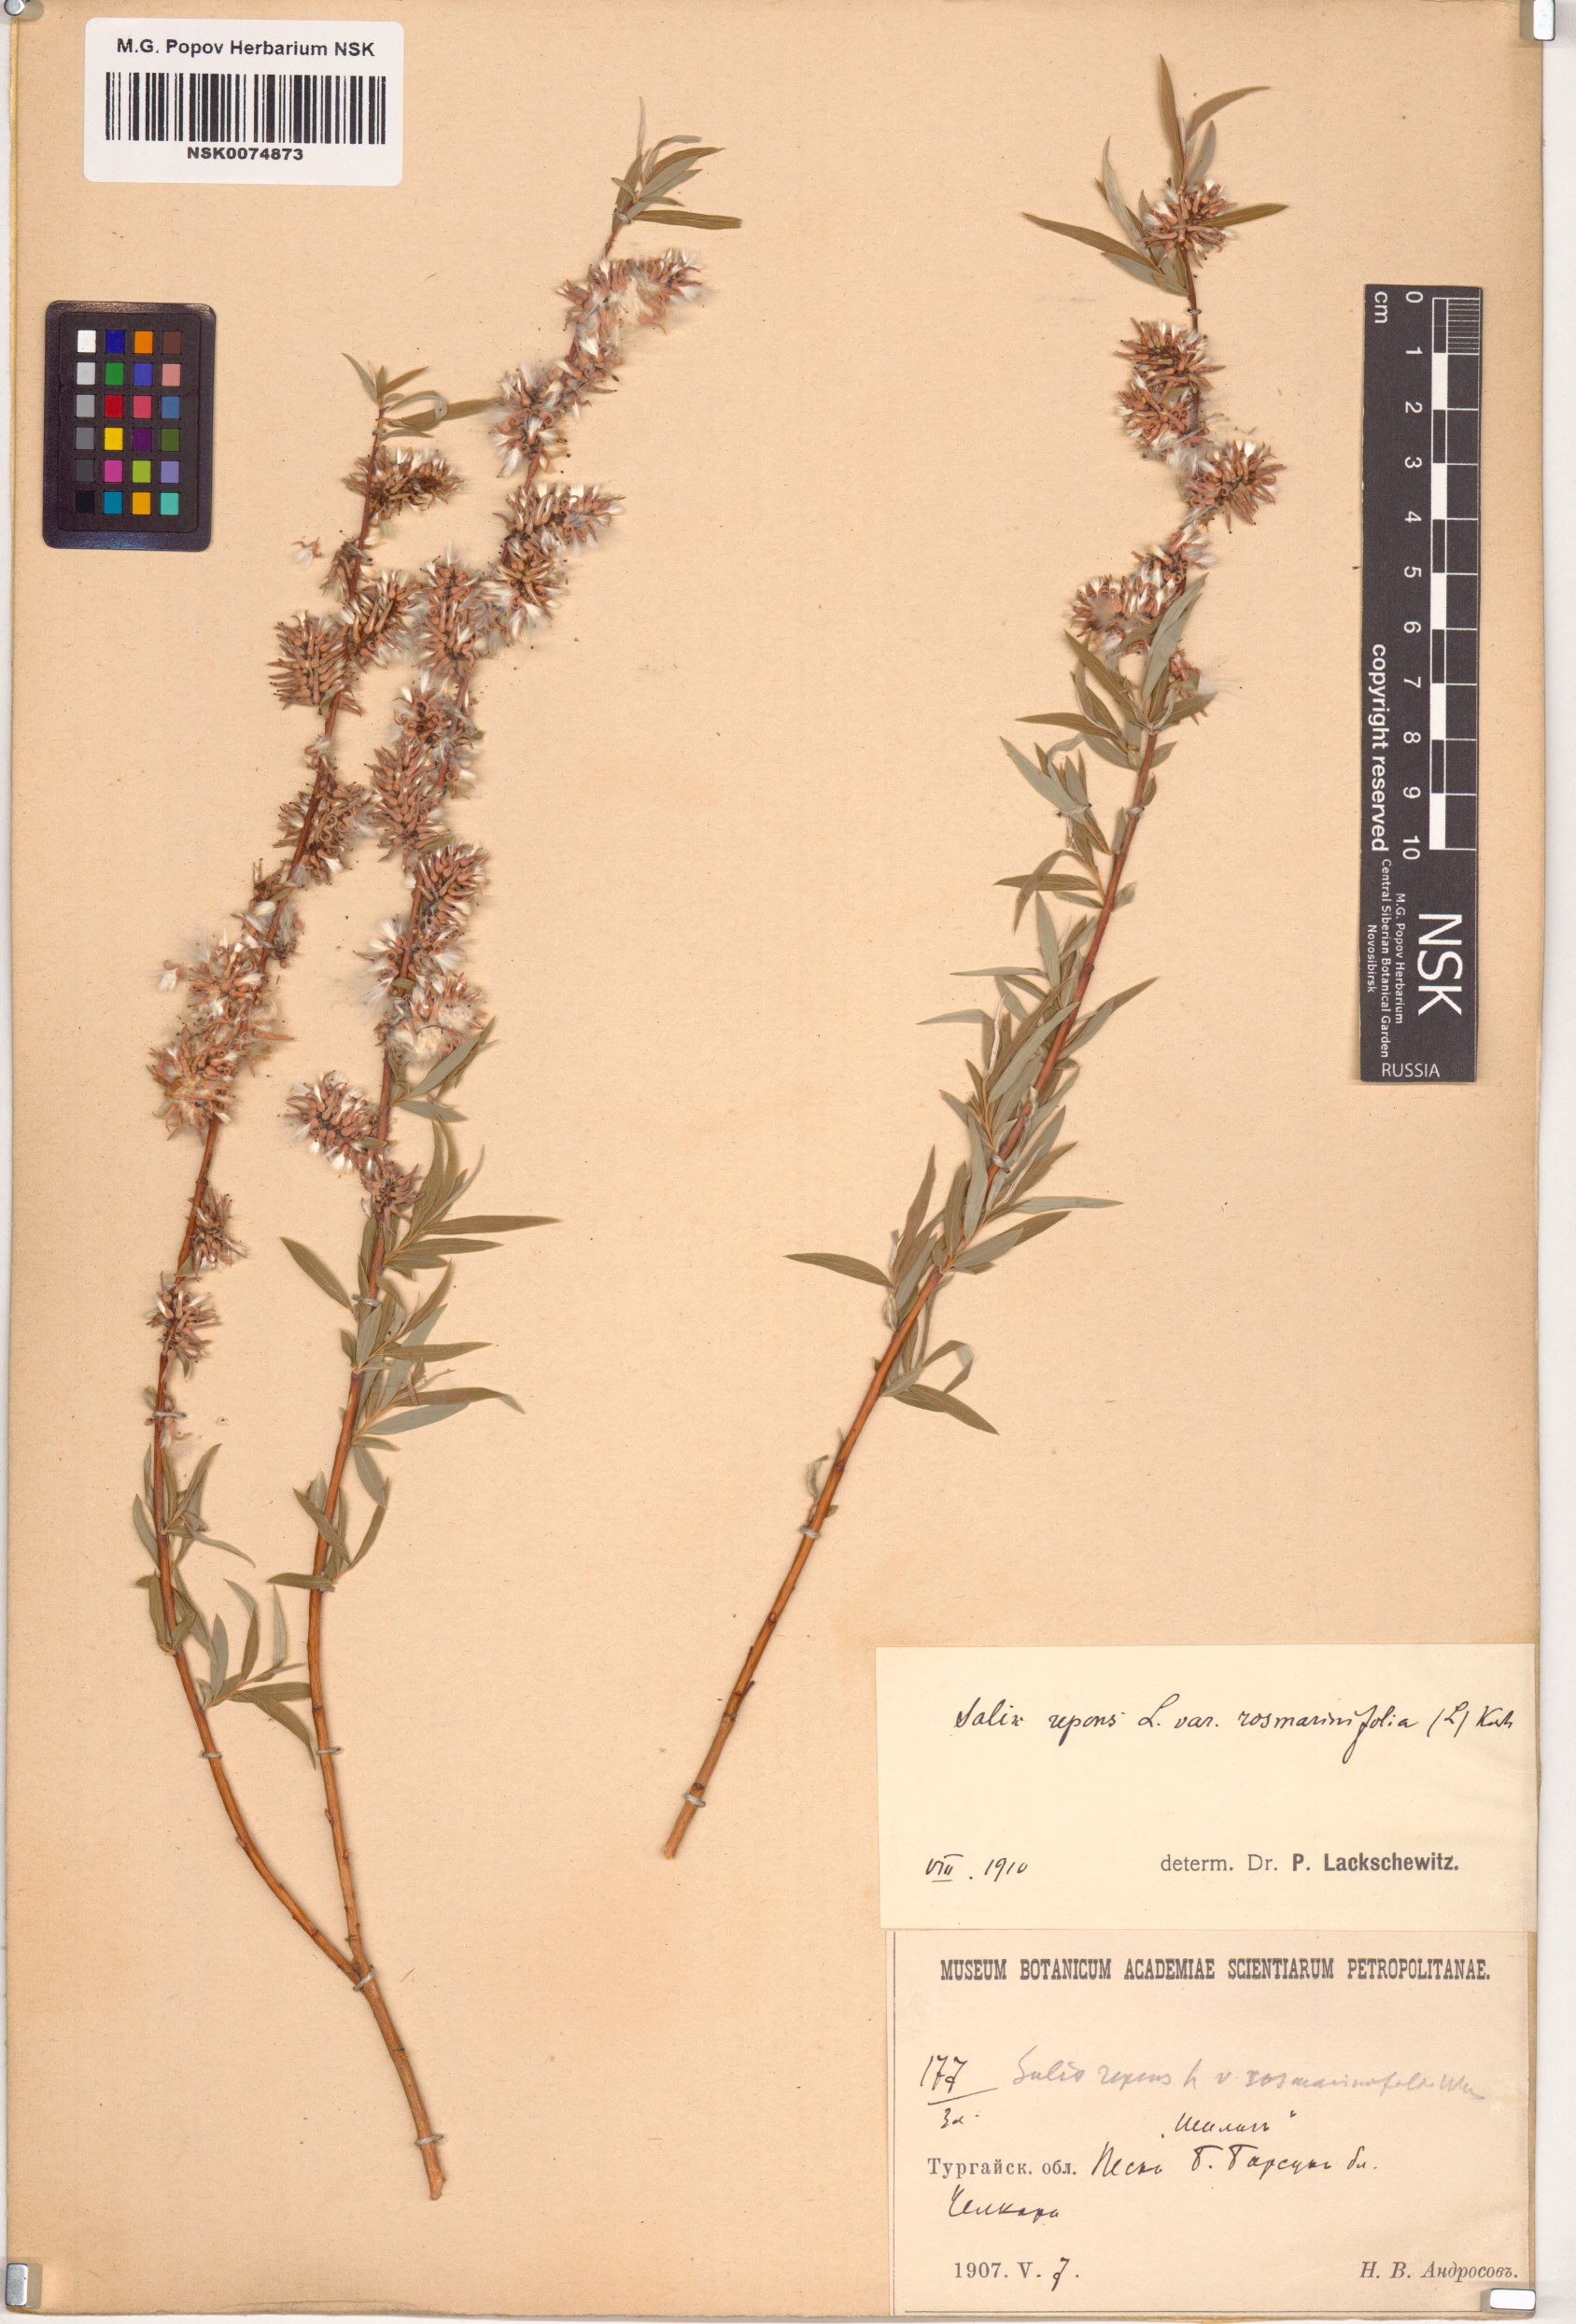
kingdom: Plantae
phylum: Tracheophyta
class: Magnoliopsida
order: Malpighiales
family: Salicaceae
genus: Salix
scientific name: Salix
